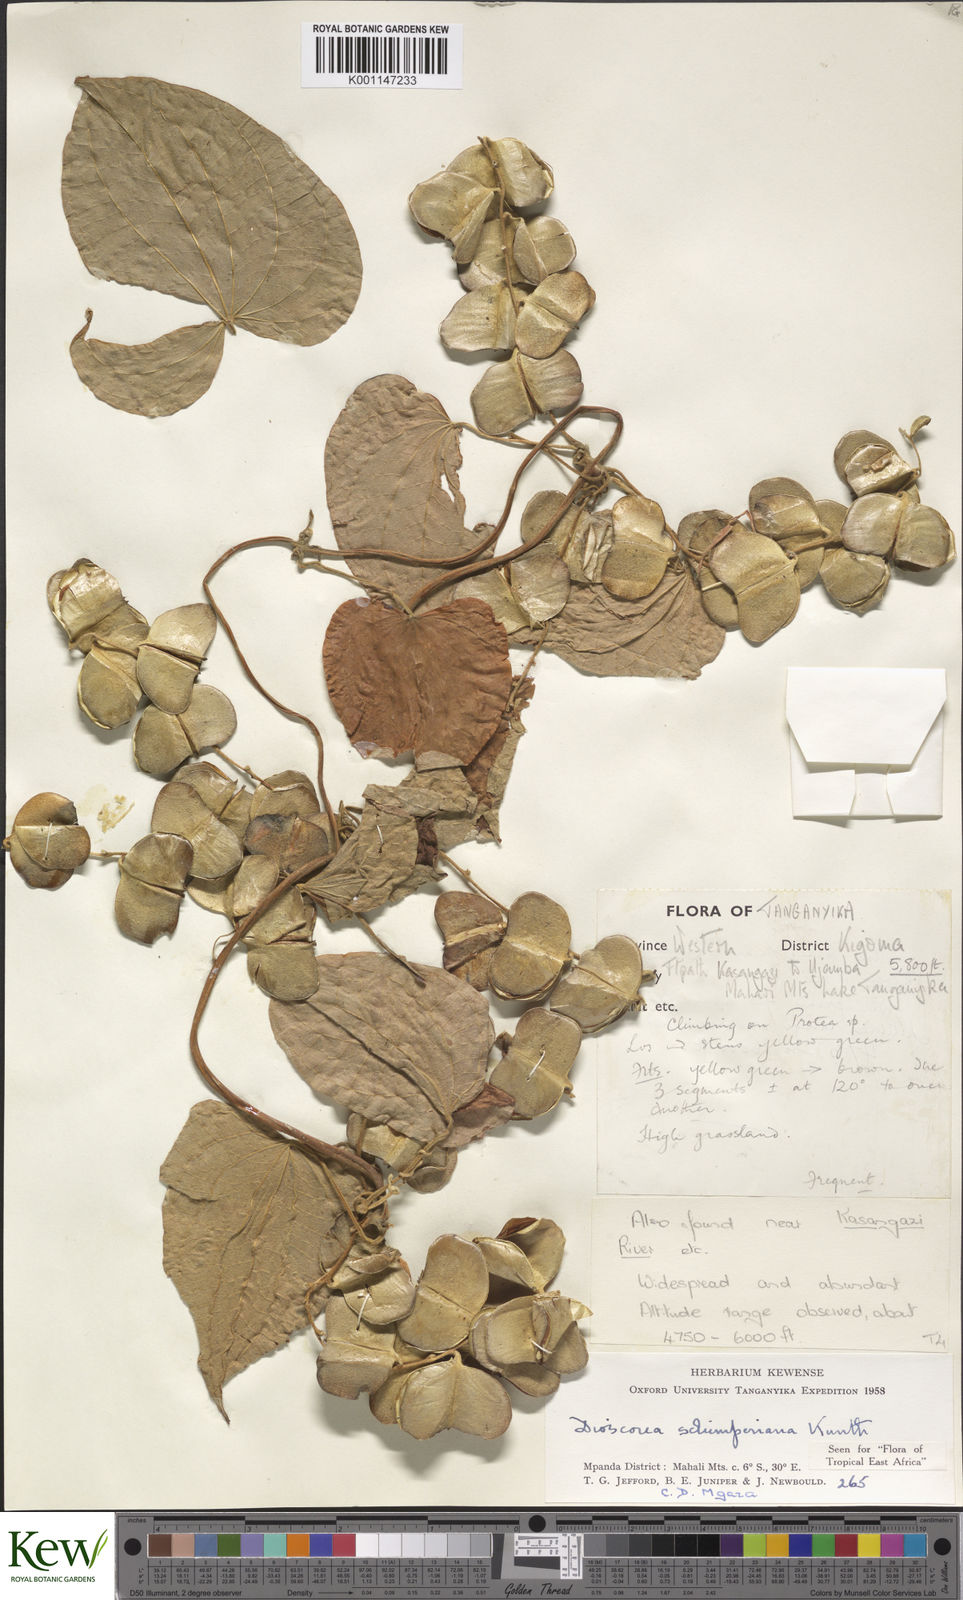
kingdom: Plantae
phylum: Tracheophyta
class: Liliopsida
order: Dioscoreales
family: Dioscoreaceae
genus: Dioscorea
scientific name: Dioscorea schimperiana
